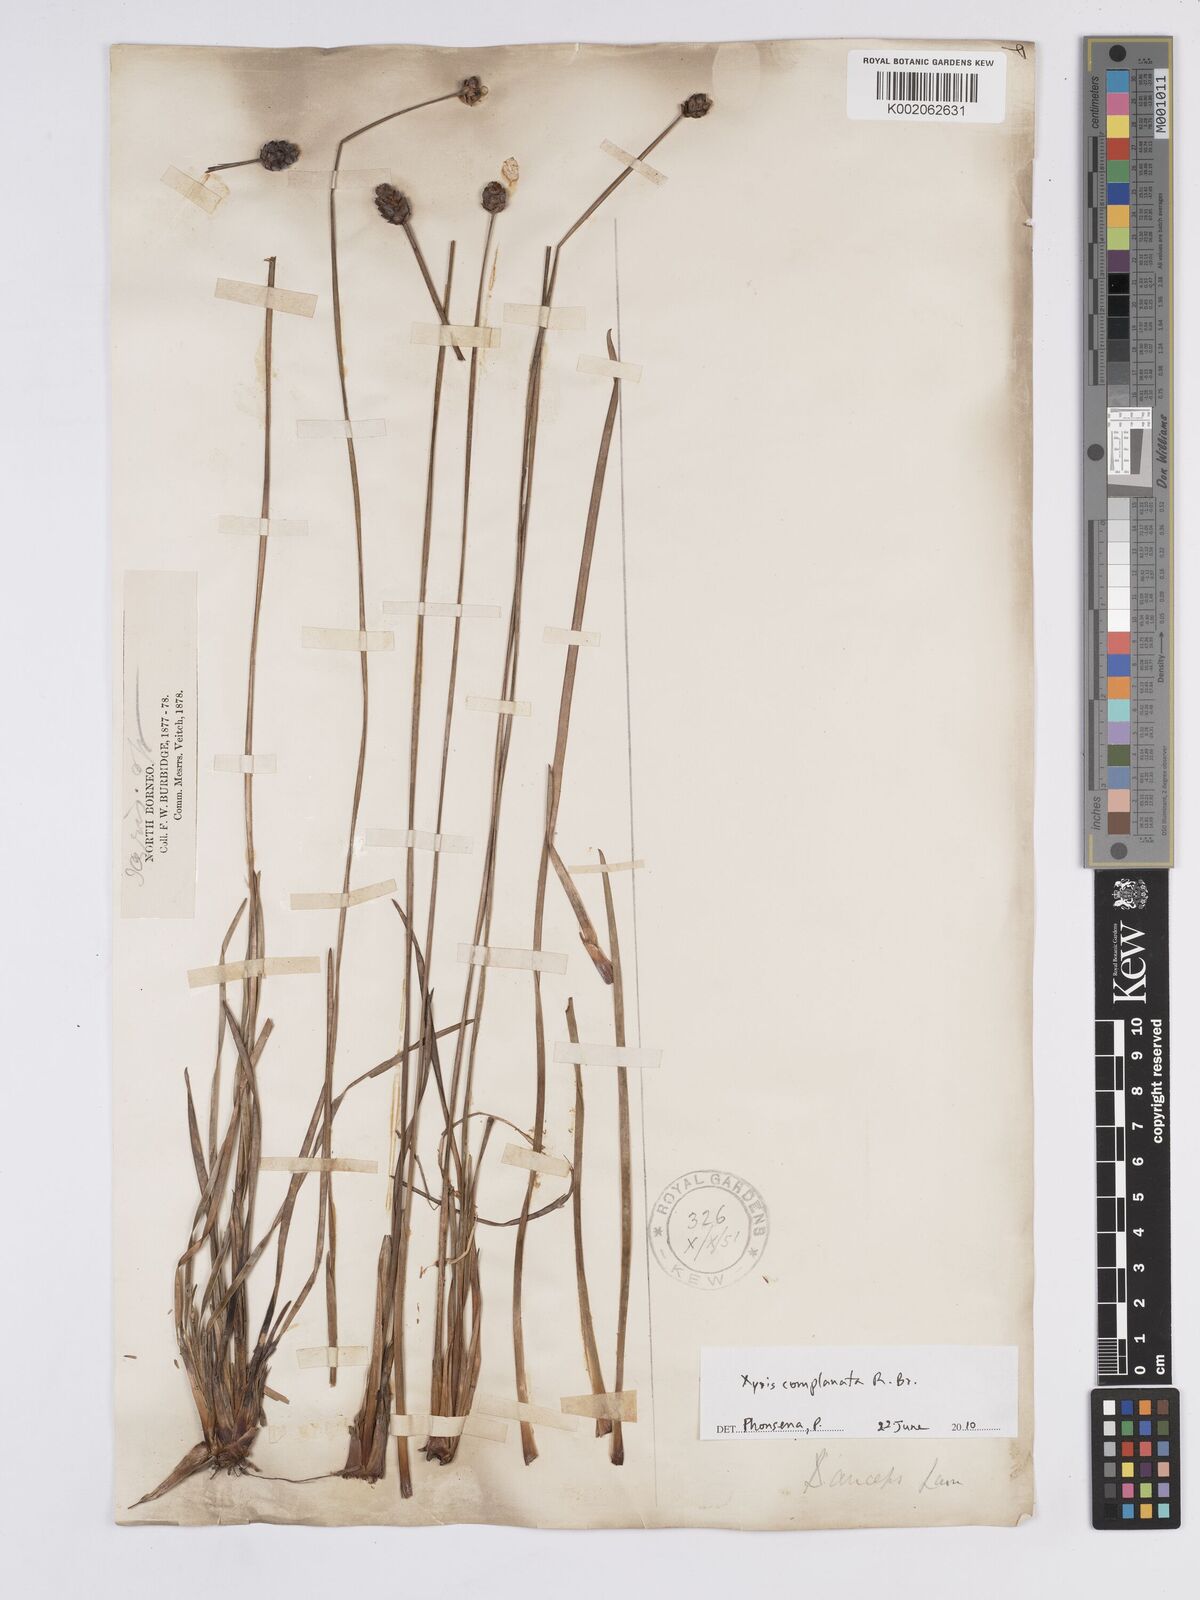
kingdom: Plantae
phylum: Tracheophyta
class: Liliopsida
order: Poales
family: Xyridaceae
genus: Xyris
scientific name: Xyris complanata
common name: Hawai'i yelloweyed grass
